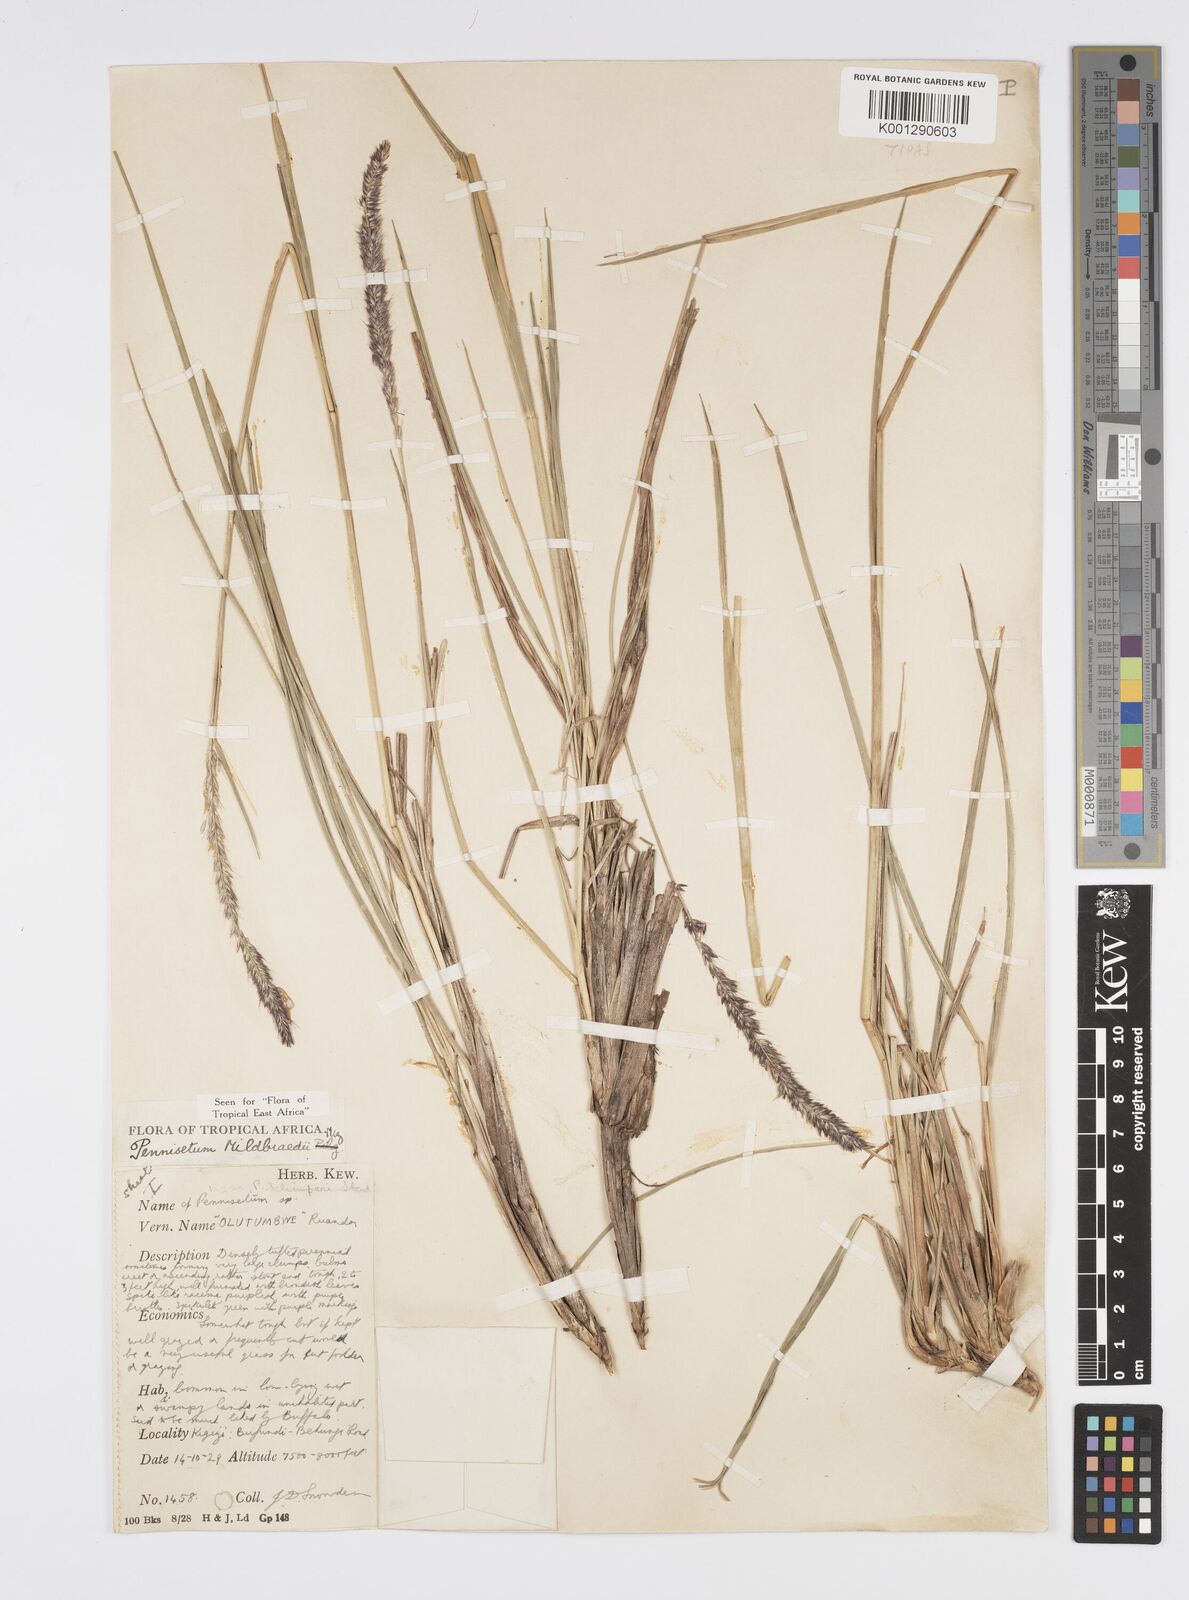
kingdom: Plantae
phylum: Tracheophyta
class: Liliopsida
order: Poales
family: Poaceae
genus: Cenchrus
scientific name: Cenchrus Pennisetum spec
